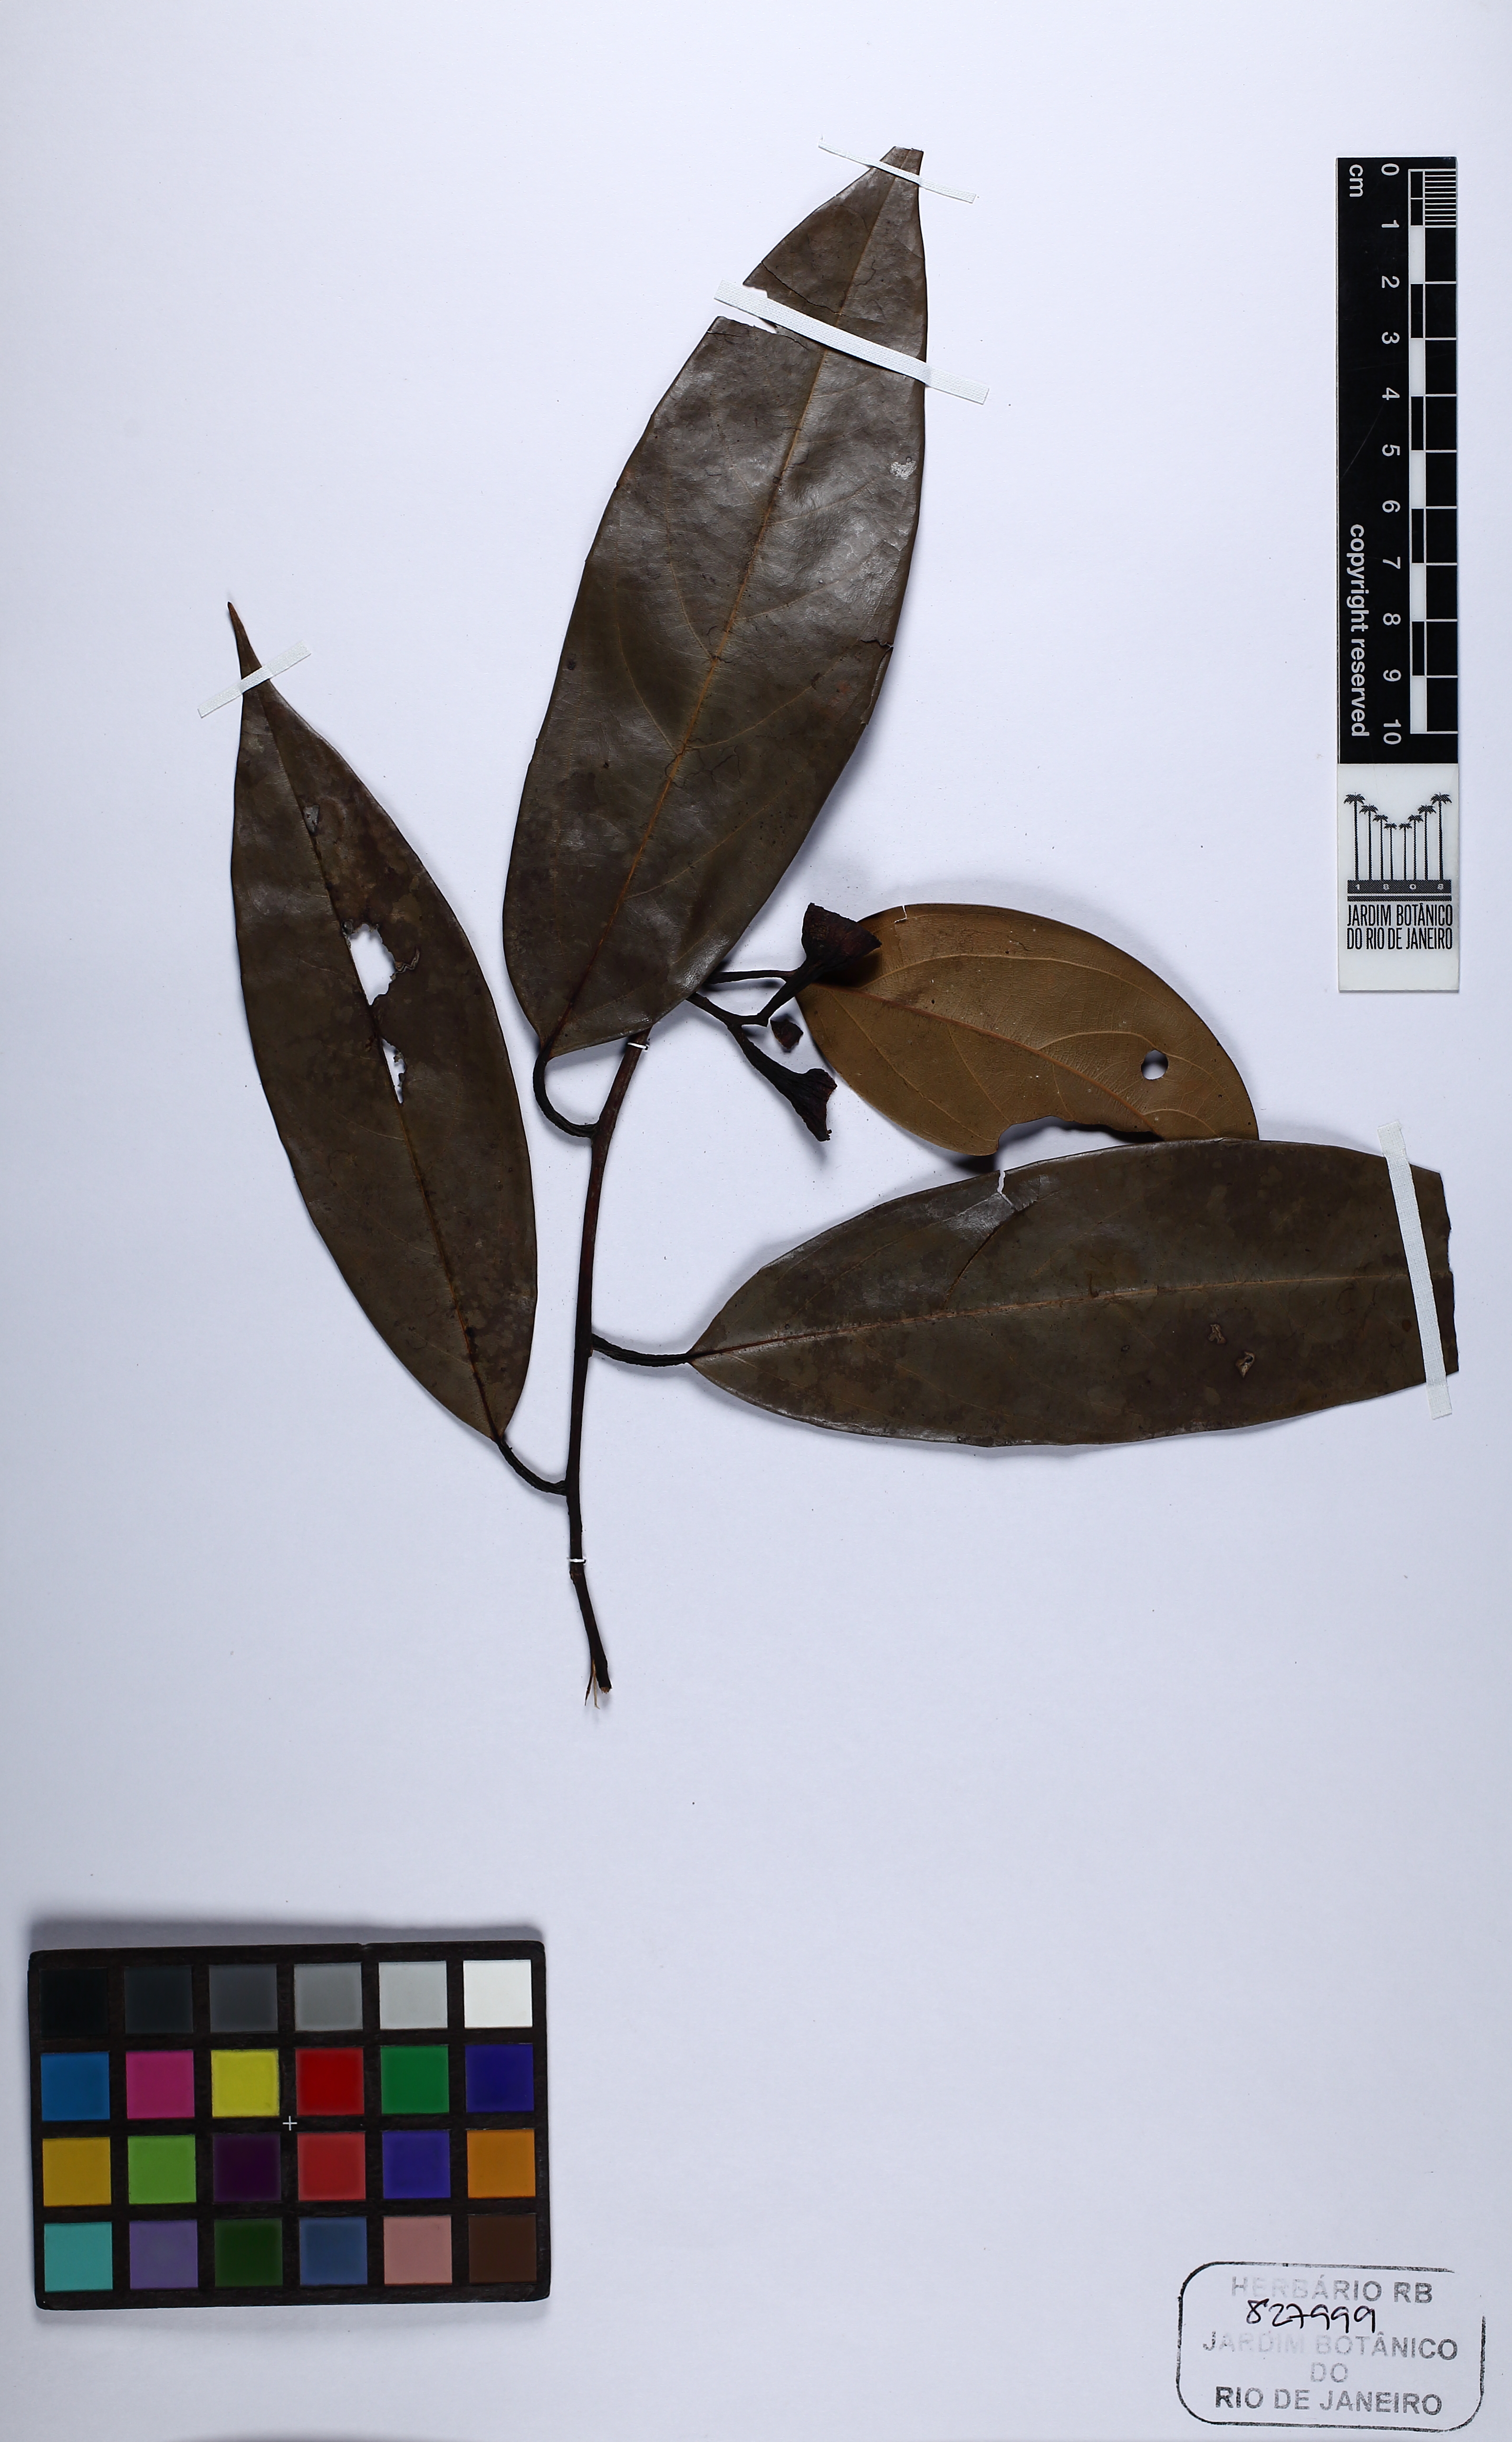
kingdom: Plantae
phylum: Tracheophyta
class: Magnoliopsida
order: Laurales
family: Lauraceae
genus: Ocotea
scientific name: Ocotea aciphylla
